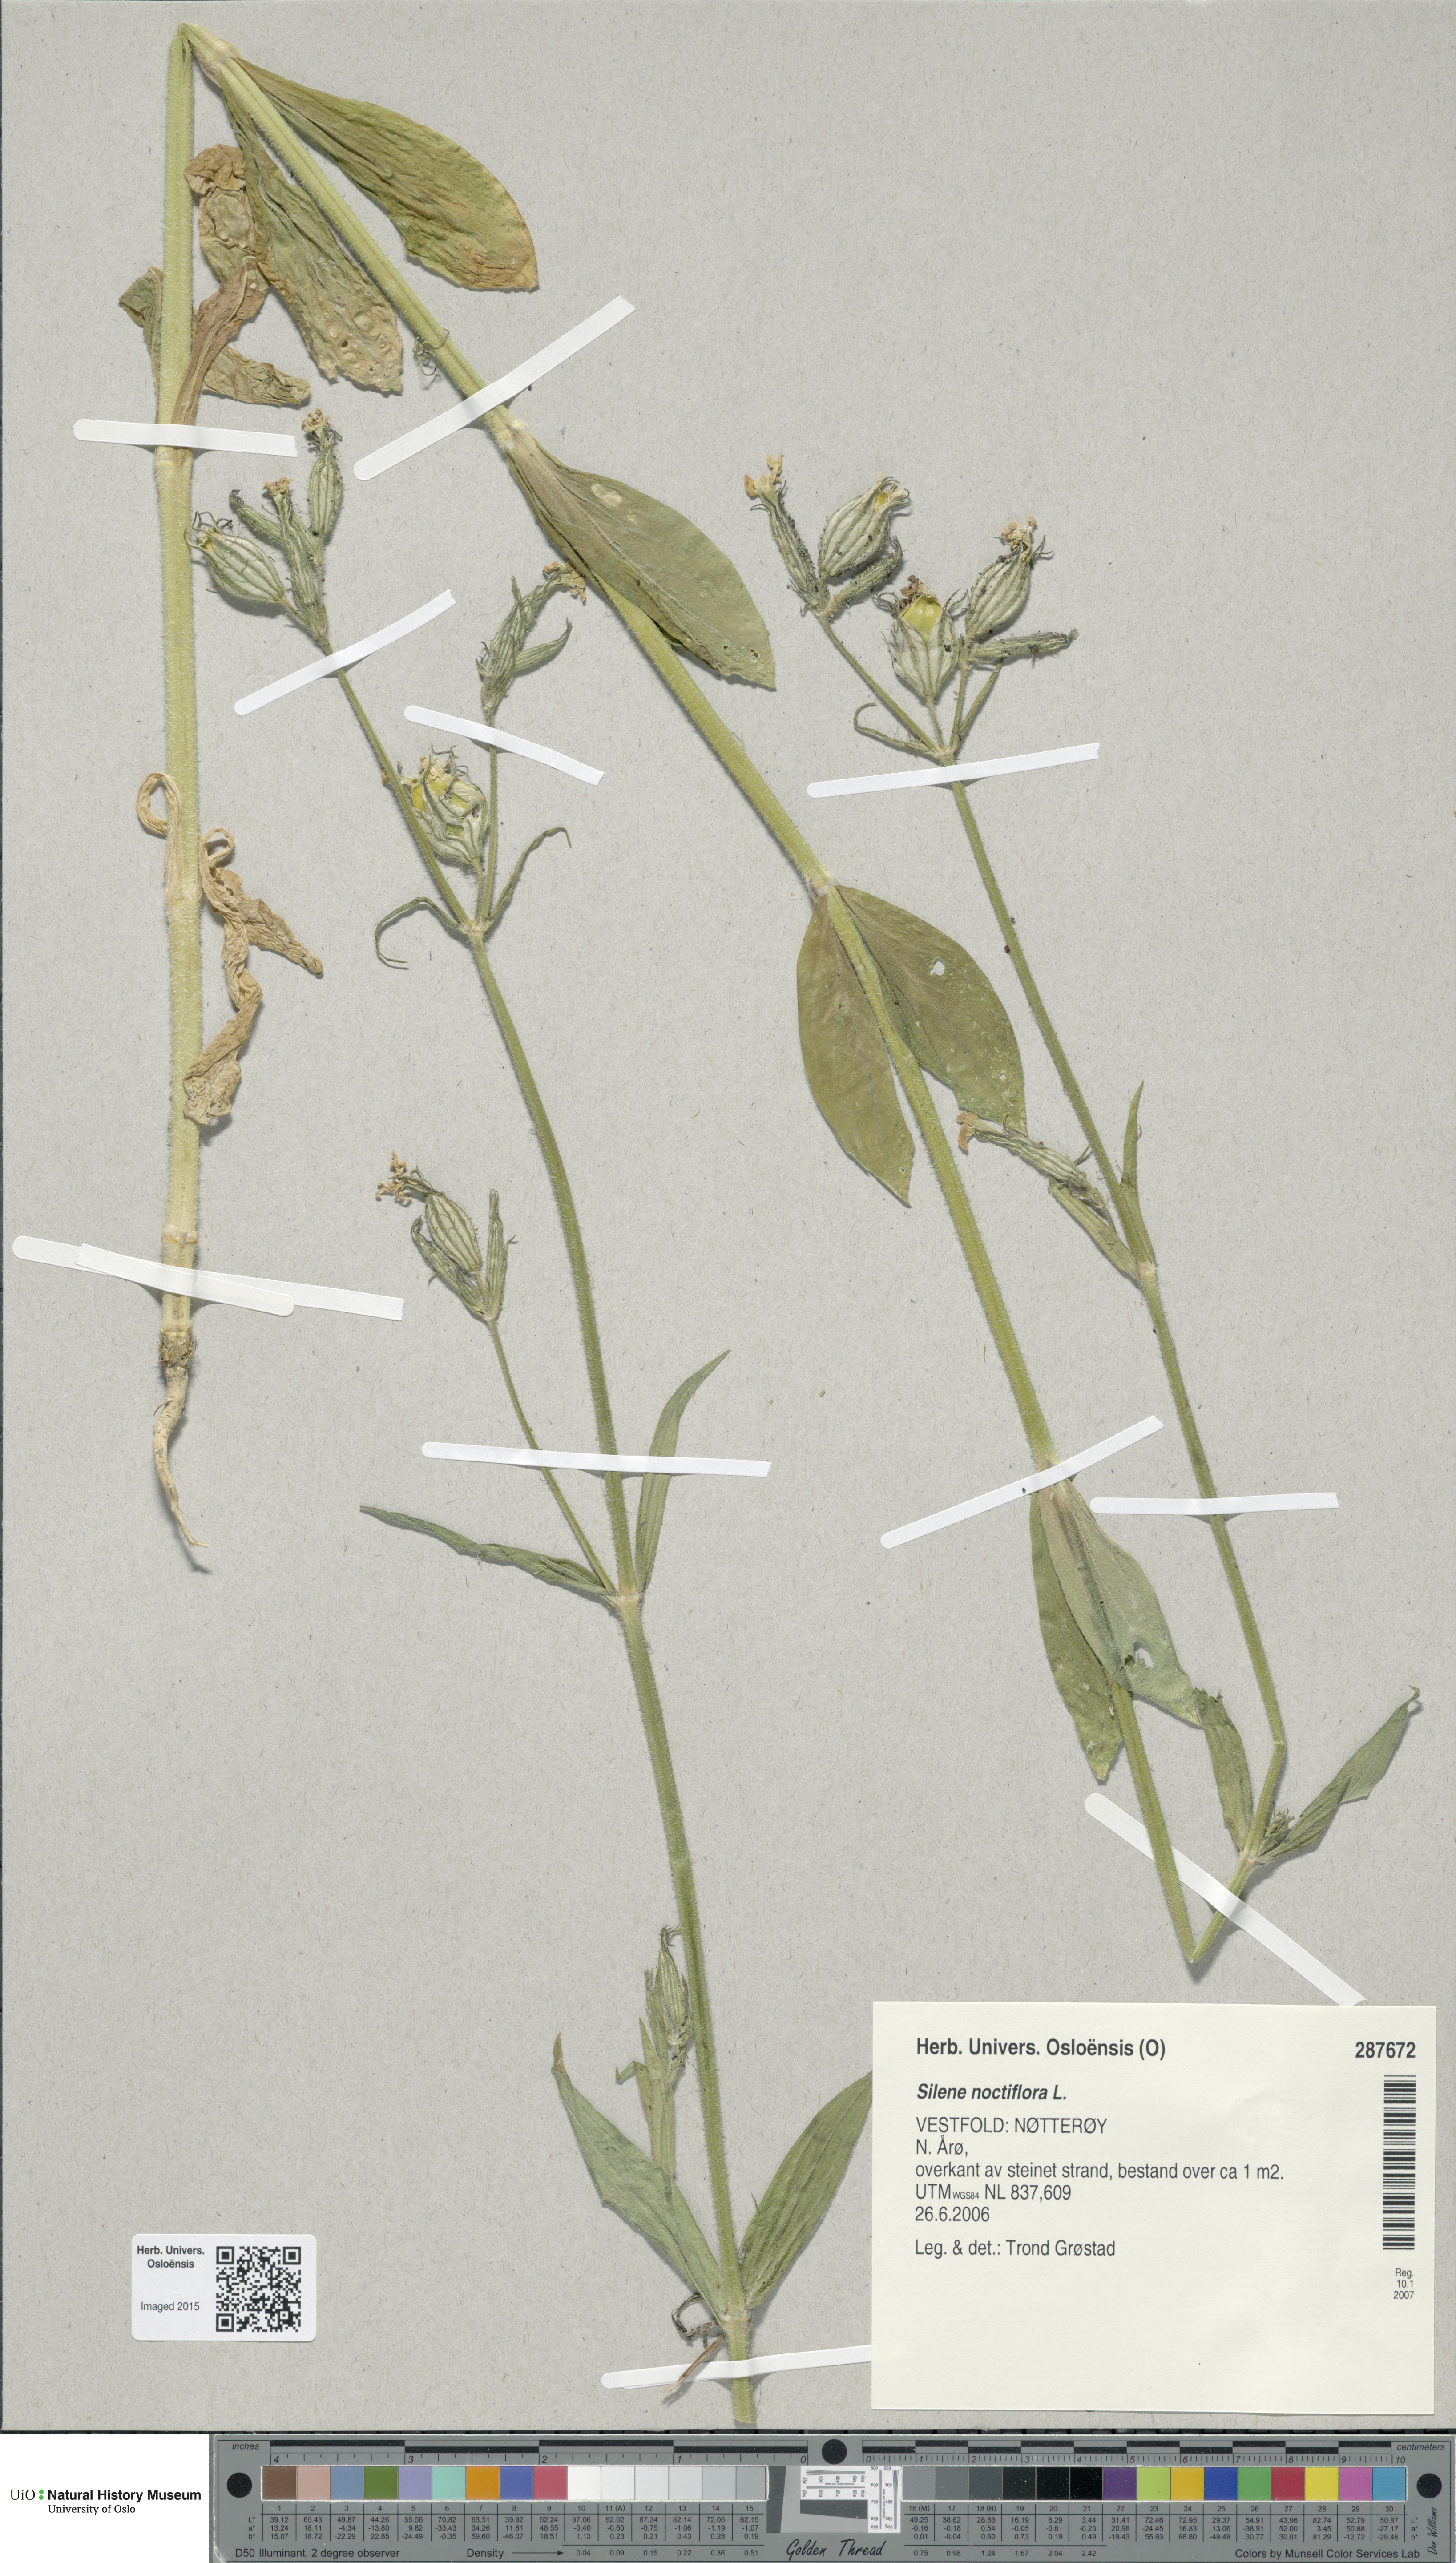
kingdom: Plantae
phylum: Tracheophyta
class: Magnoliopsida
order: Caryophyllales
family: Caryophyllaceae
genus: Silene
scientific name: Silene noctiflora
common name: Night-flowering catchfly
